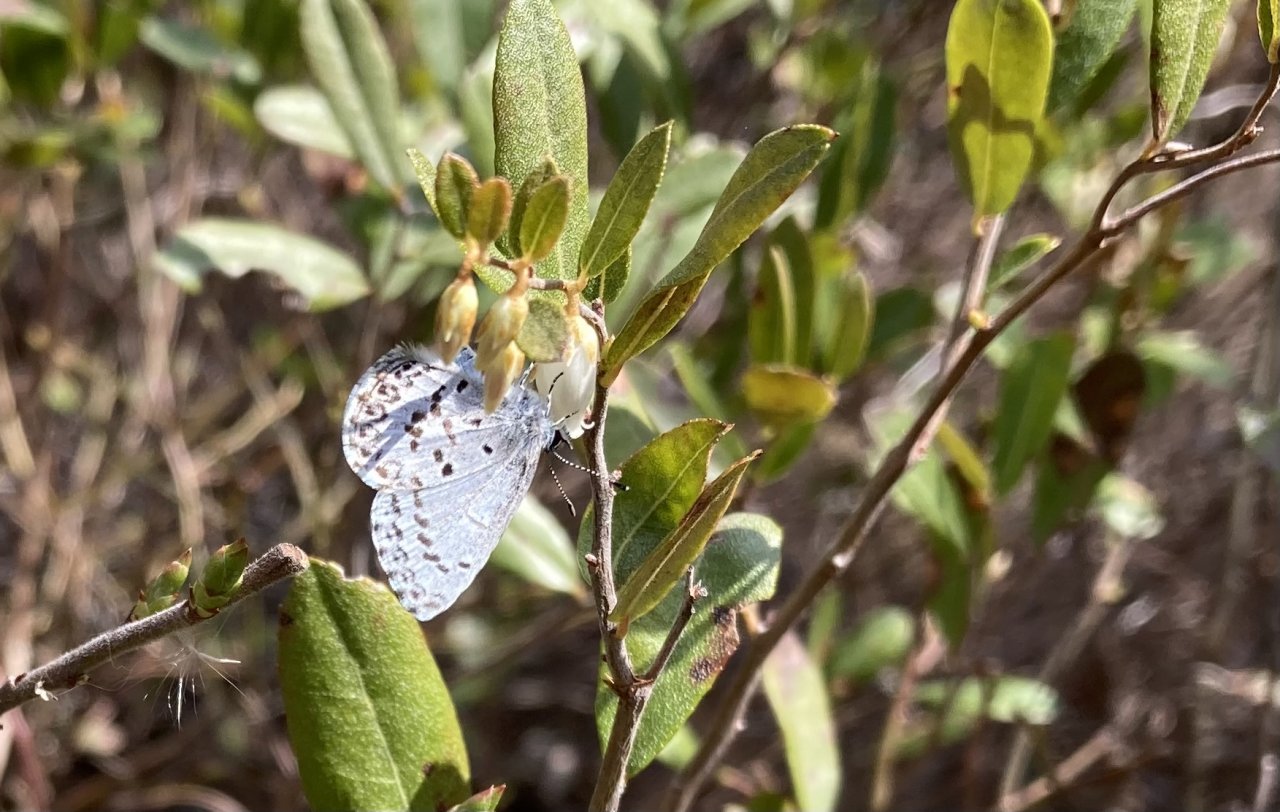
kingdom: Animalia
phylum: Arthropoda
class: Insecta
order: Lepidoptera
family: Lycaenidae
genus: Celastrina
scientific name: Celastrina lucia
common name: Northern Spring Azure
